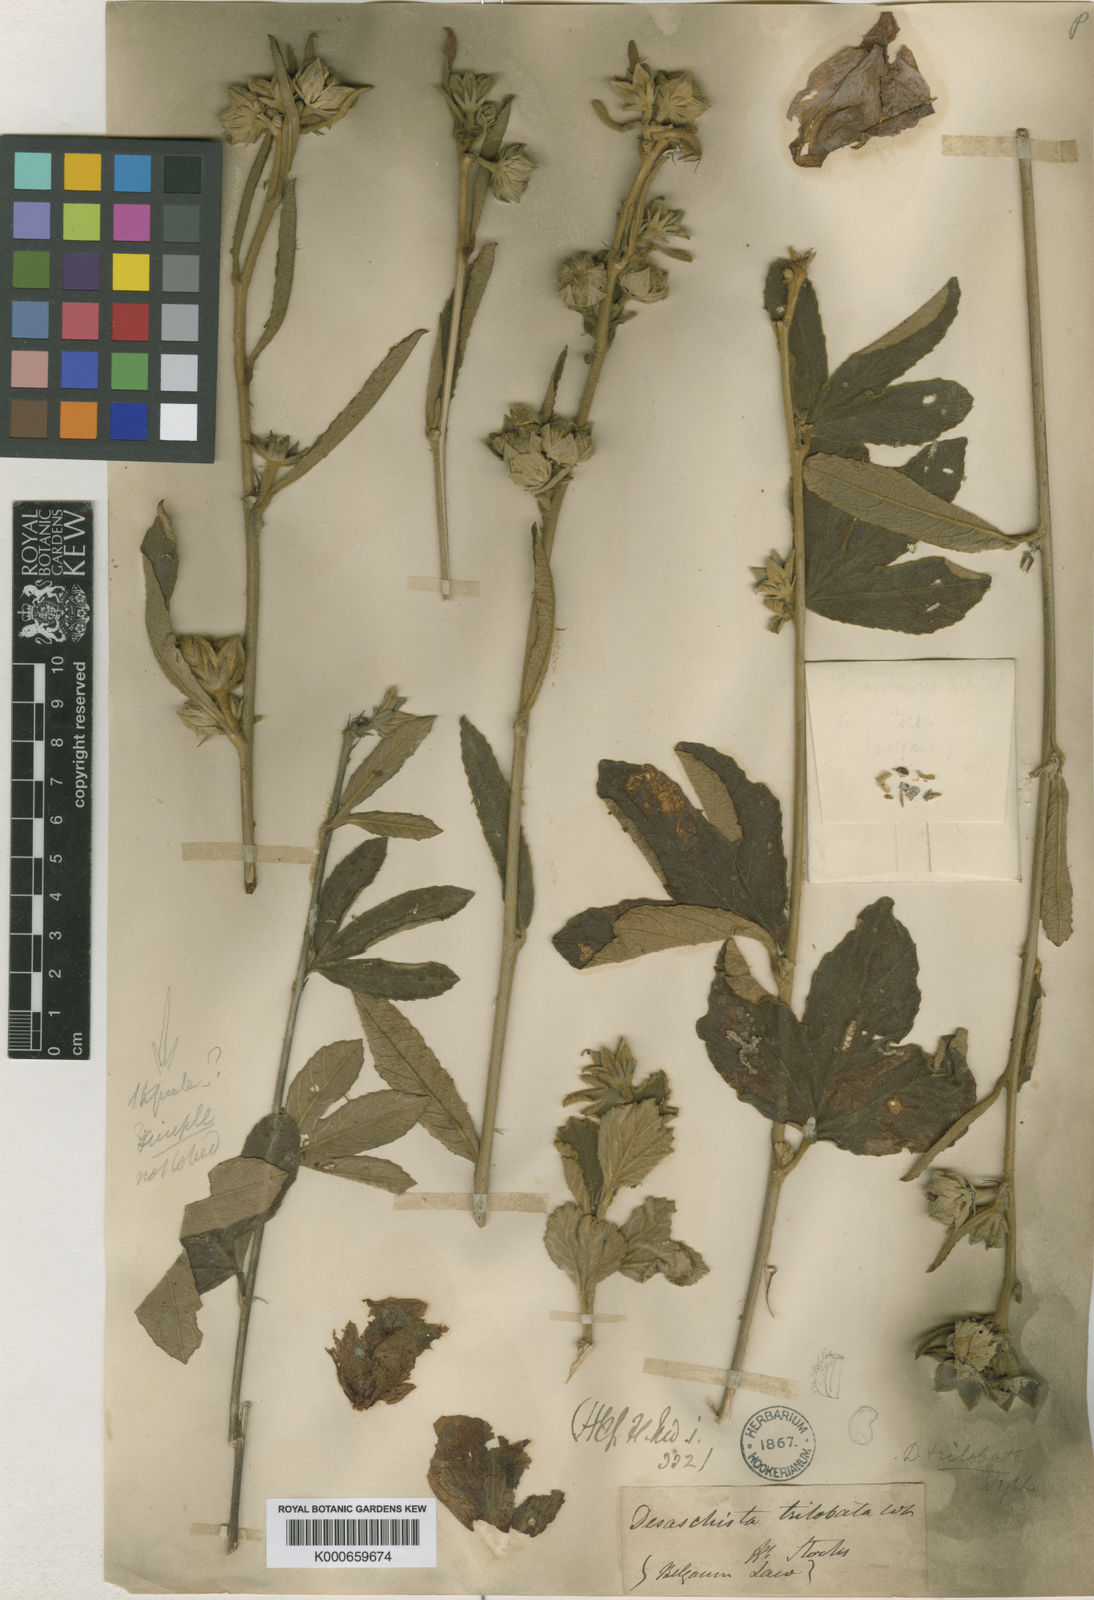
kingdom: Plantae
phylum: Tracheophyta
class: Magnoliopsida
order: Malvales
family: Malvaceae
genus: Decaschistia
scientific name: Decaschistia trilobata
